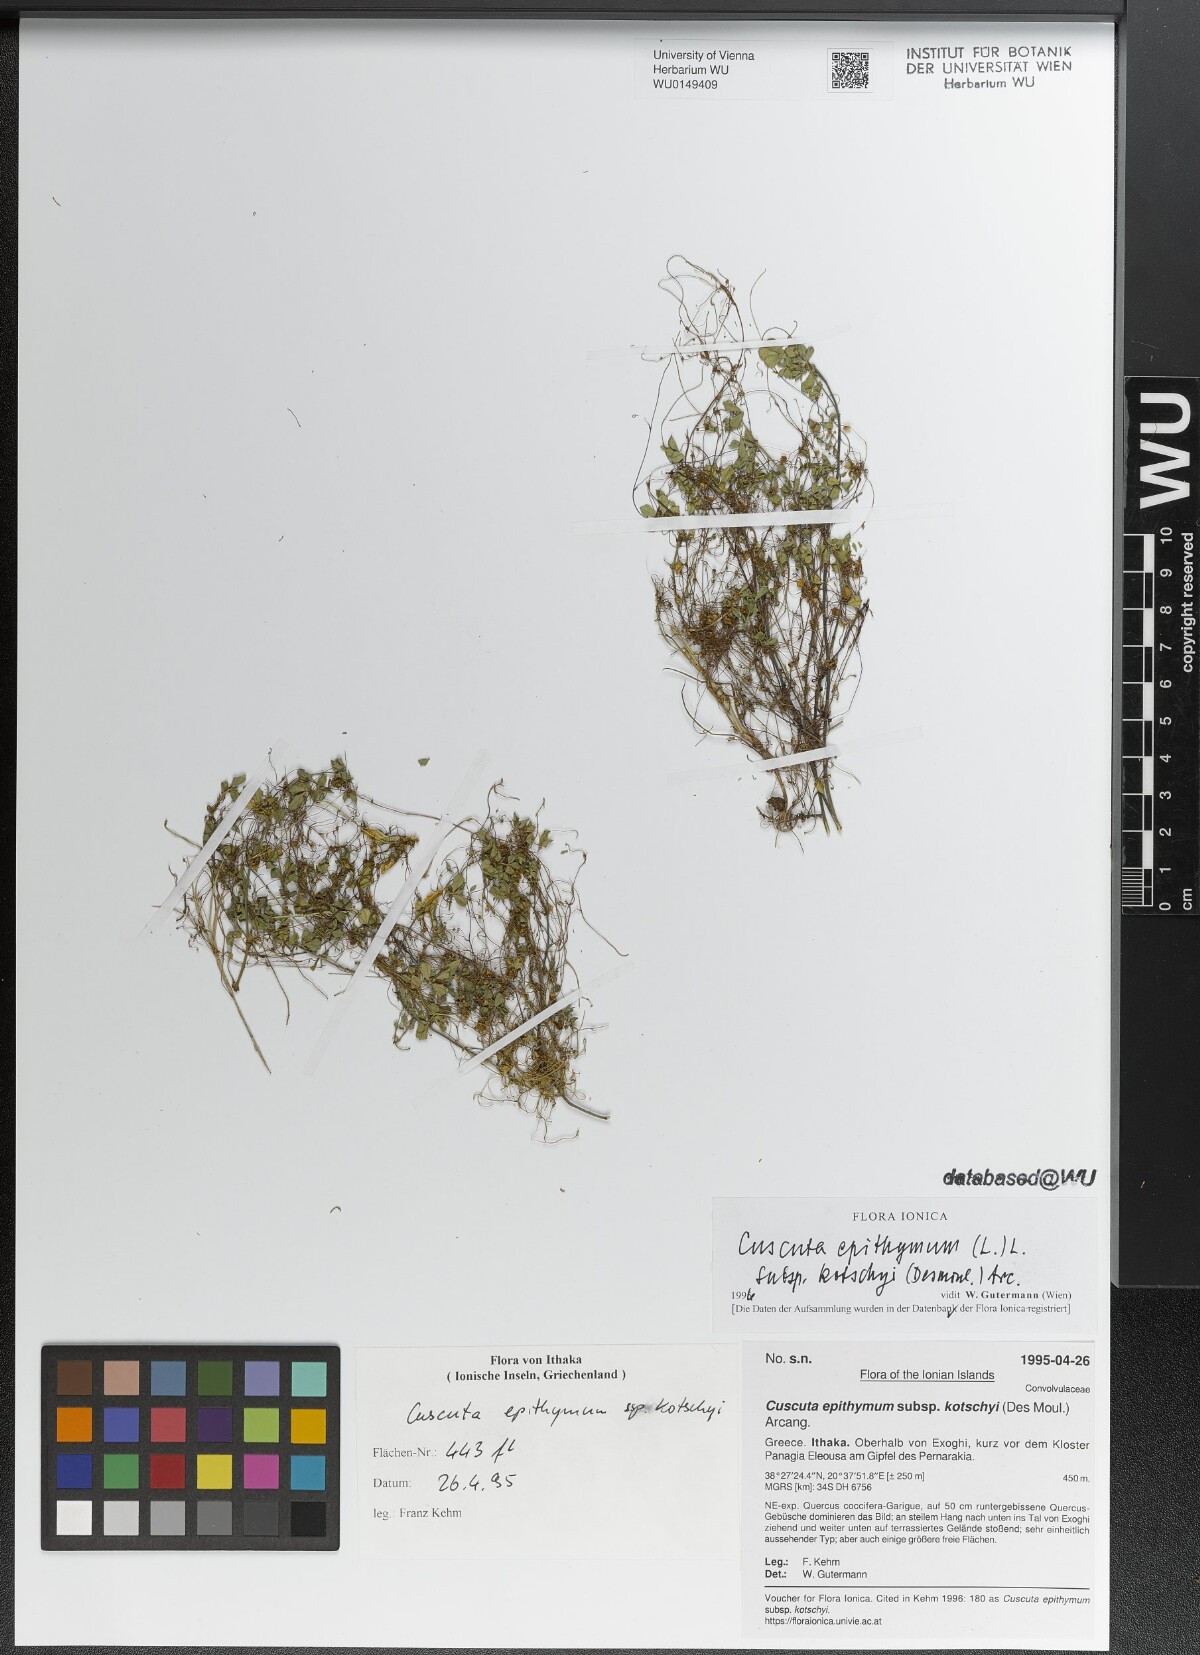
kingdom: Plantae
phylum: Tracheophyta
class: Magnoliopsida
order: Solanales
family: Convolvulaceae
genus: Cuscuta
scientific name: Cuscuta epithymum
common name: Clover dodder
